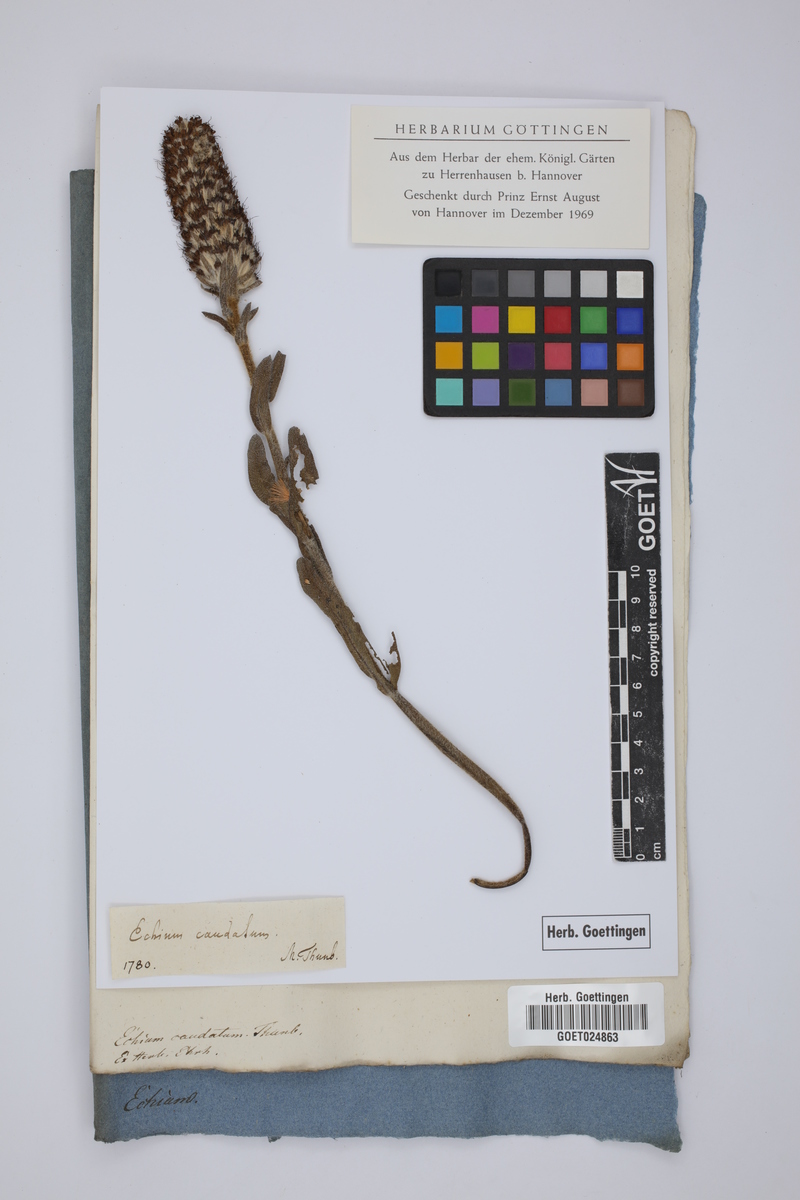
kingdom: Plantae
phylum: Tracheophyta
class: Magnoliopsida
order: Boraginales
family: Boraginaceae
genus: Lobostemon
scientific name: Lobostemon spicatus
